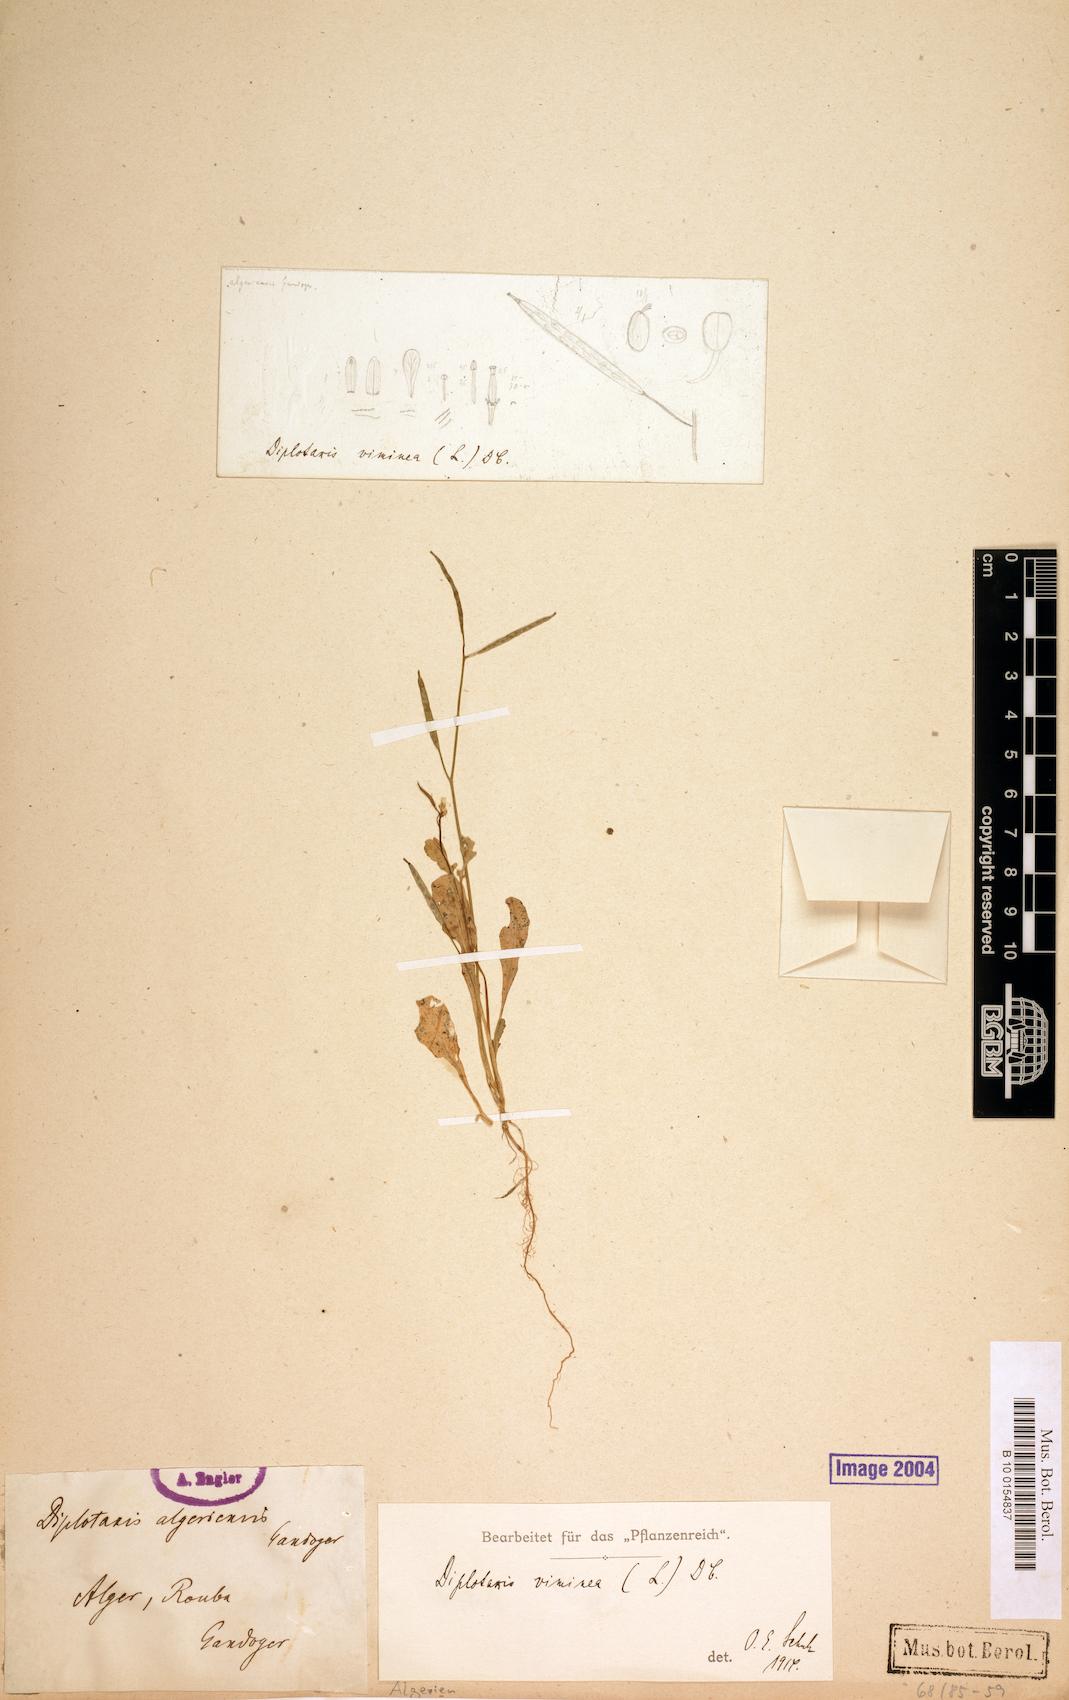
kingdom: Plantae
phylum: Tracheophyta
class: Magnoliopsida
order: Brassicales
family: Brassicaceae
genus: Diplotaxis
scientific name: Diplotaxis viminea
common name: Vineyard wall rocket
